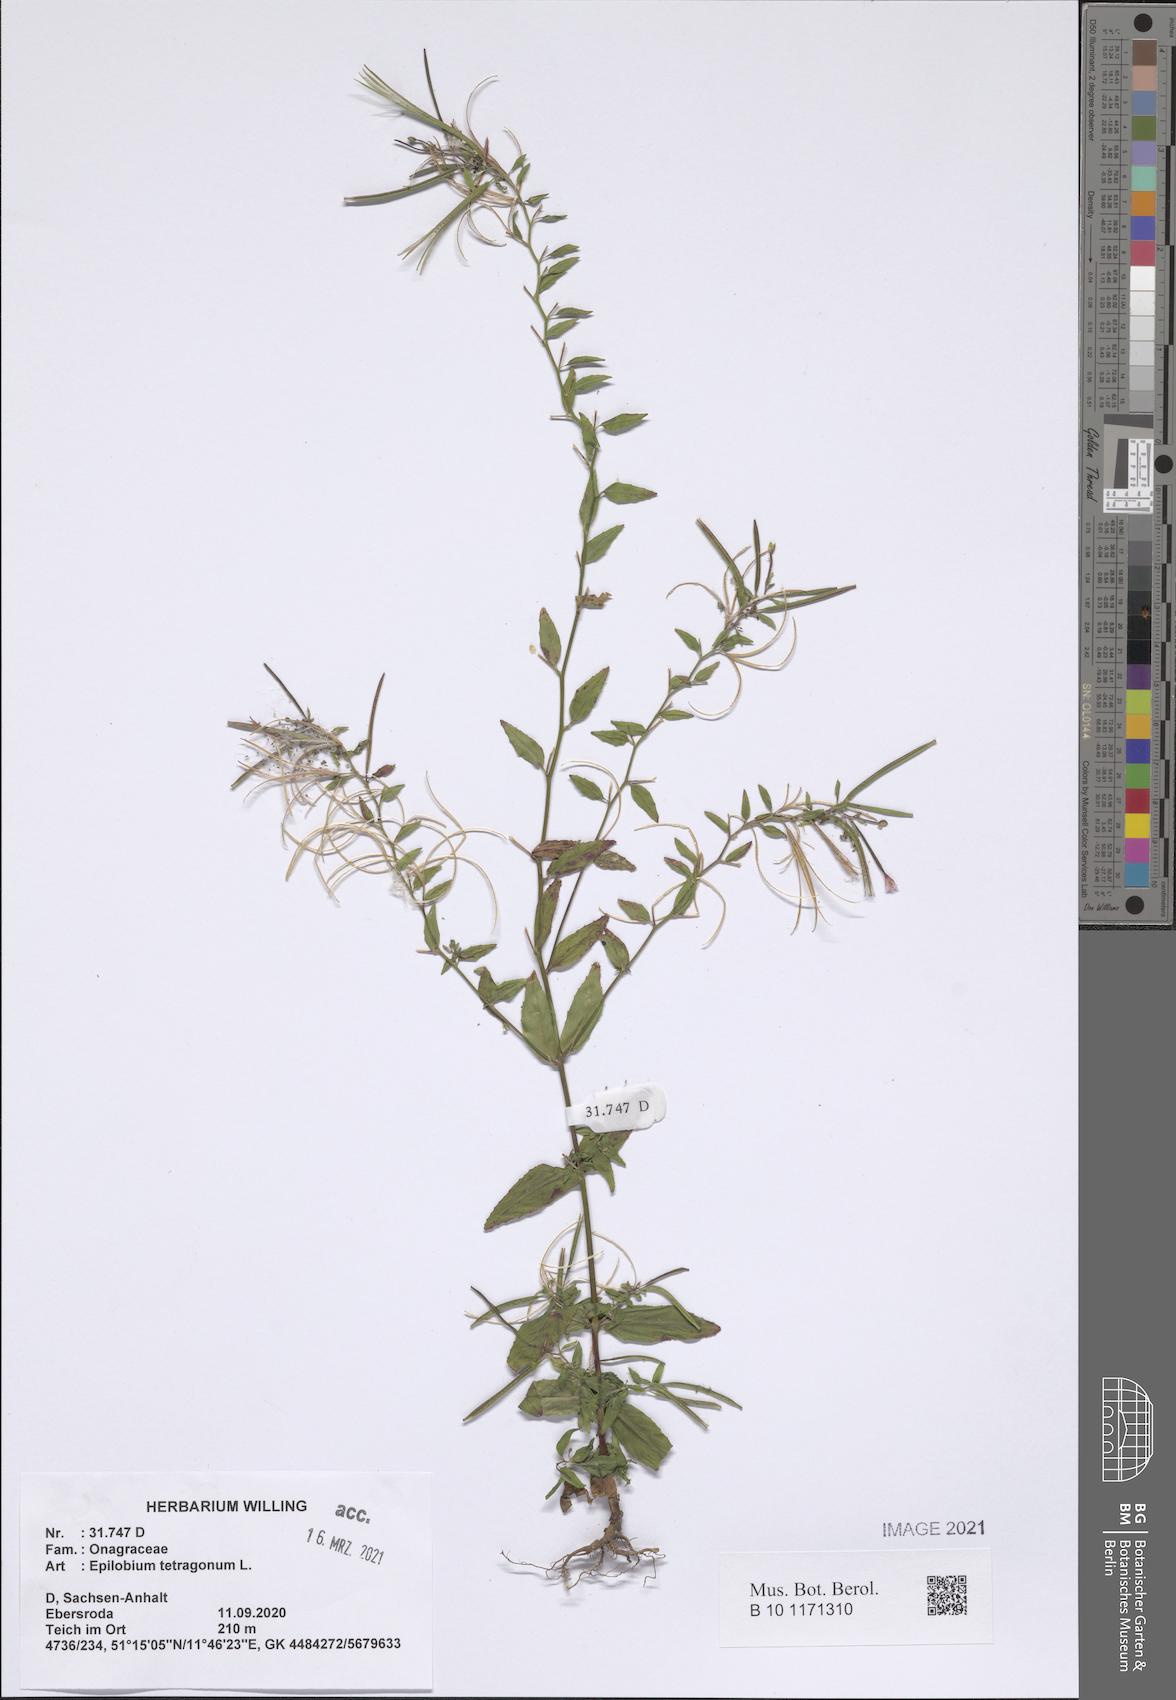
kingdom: Plantae
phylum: Tracheophyta
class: Magnoliopsida
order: Myrtales
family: Onagraceae
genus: Epilobium
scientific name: Epilobium tetragonum
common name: Square-stemmed willowherb
